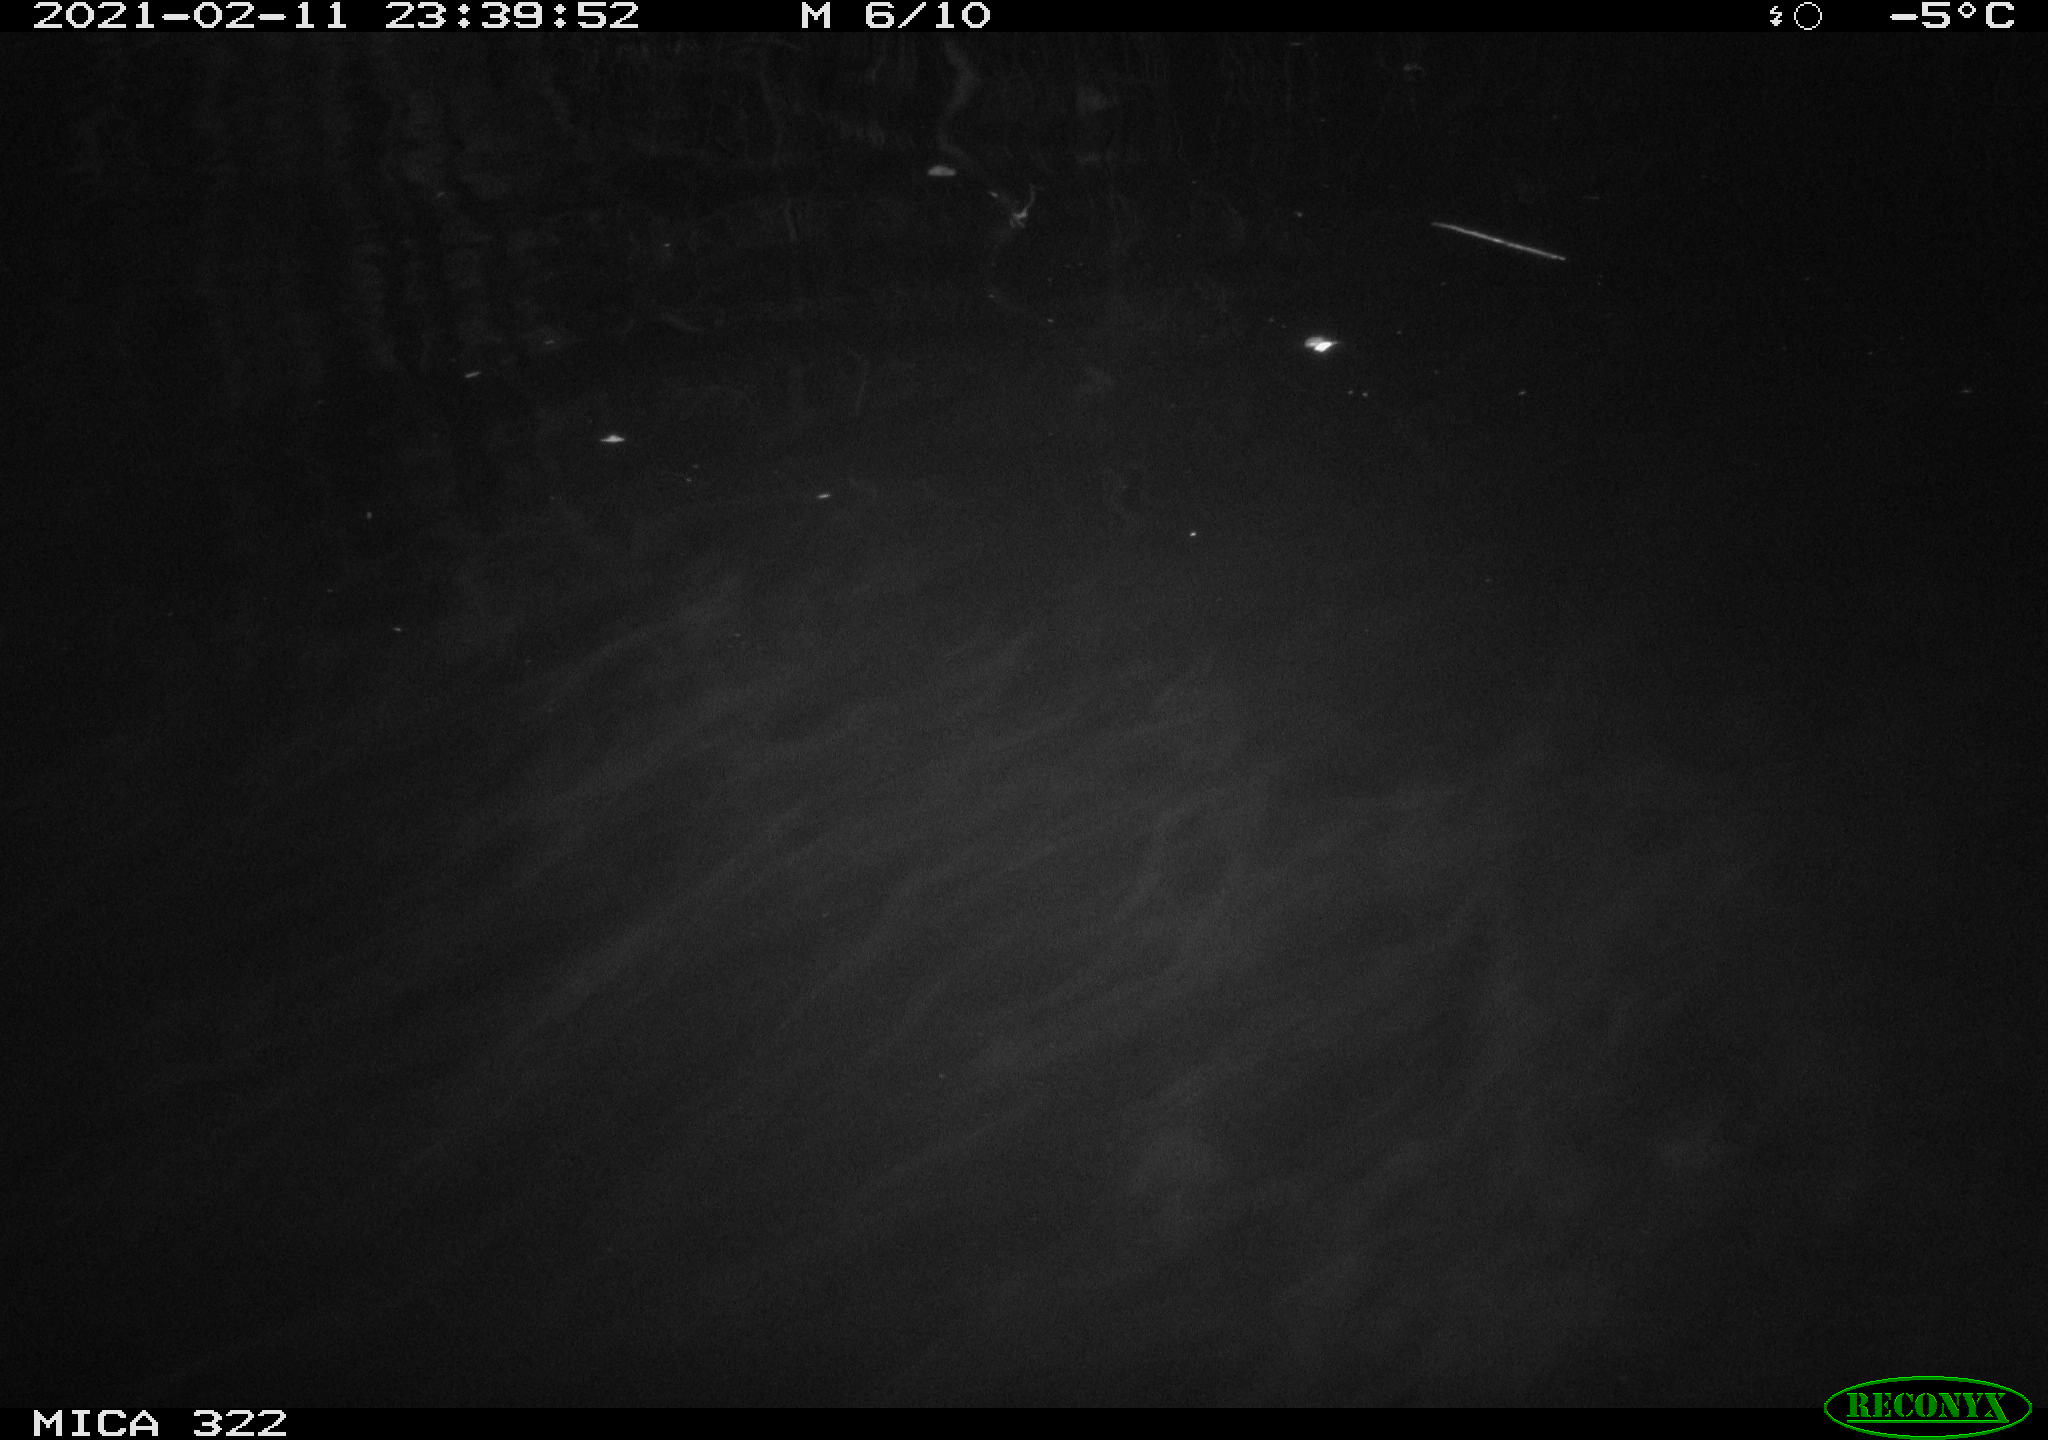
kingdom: Animalia
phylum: Chordata
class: Aves
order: Anseriformes
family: Anatidae
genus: Anas
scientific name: Anas platyrhynchos
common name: Mallard
